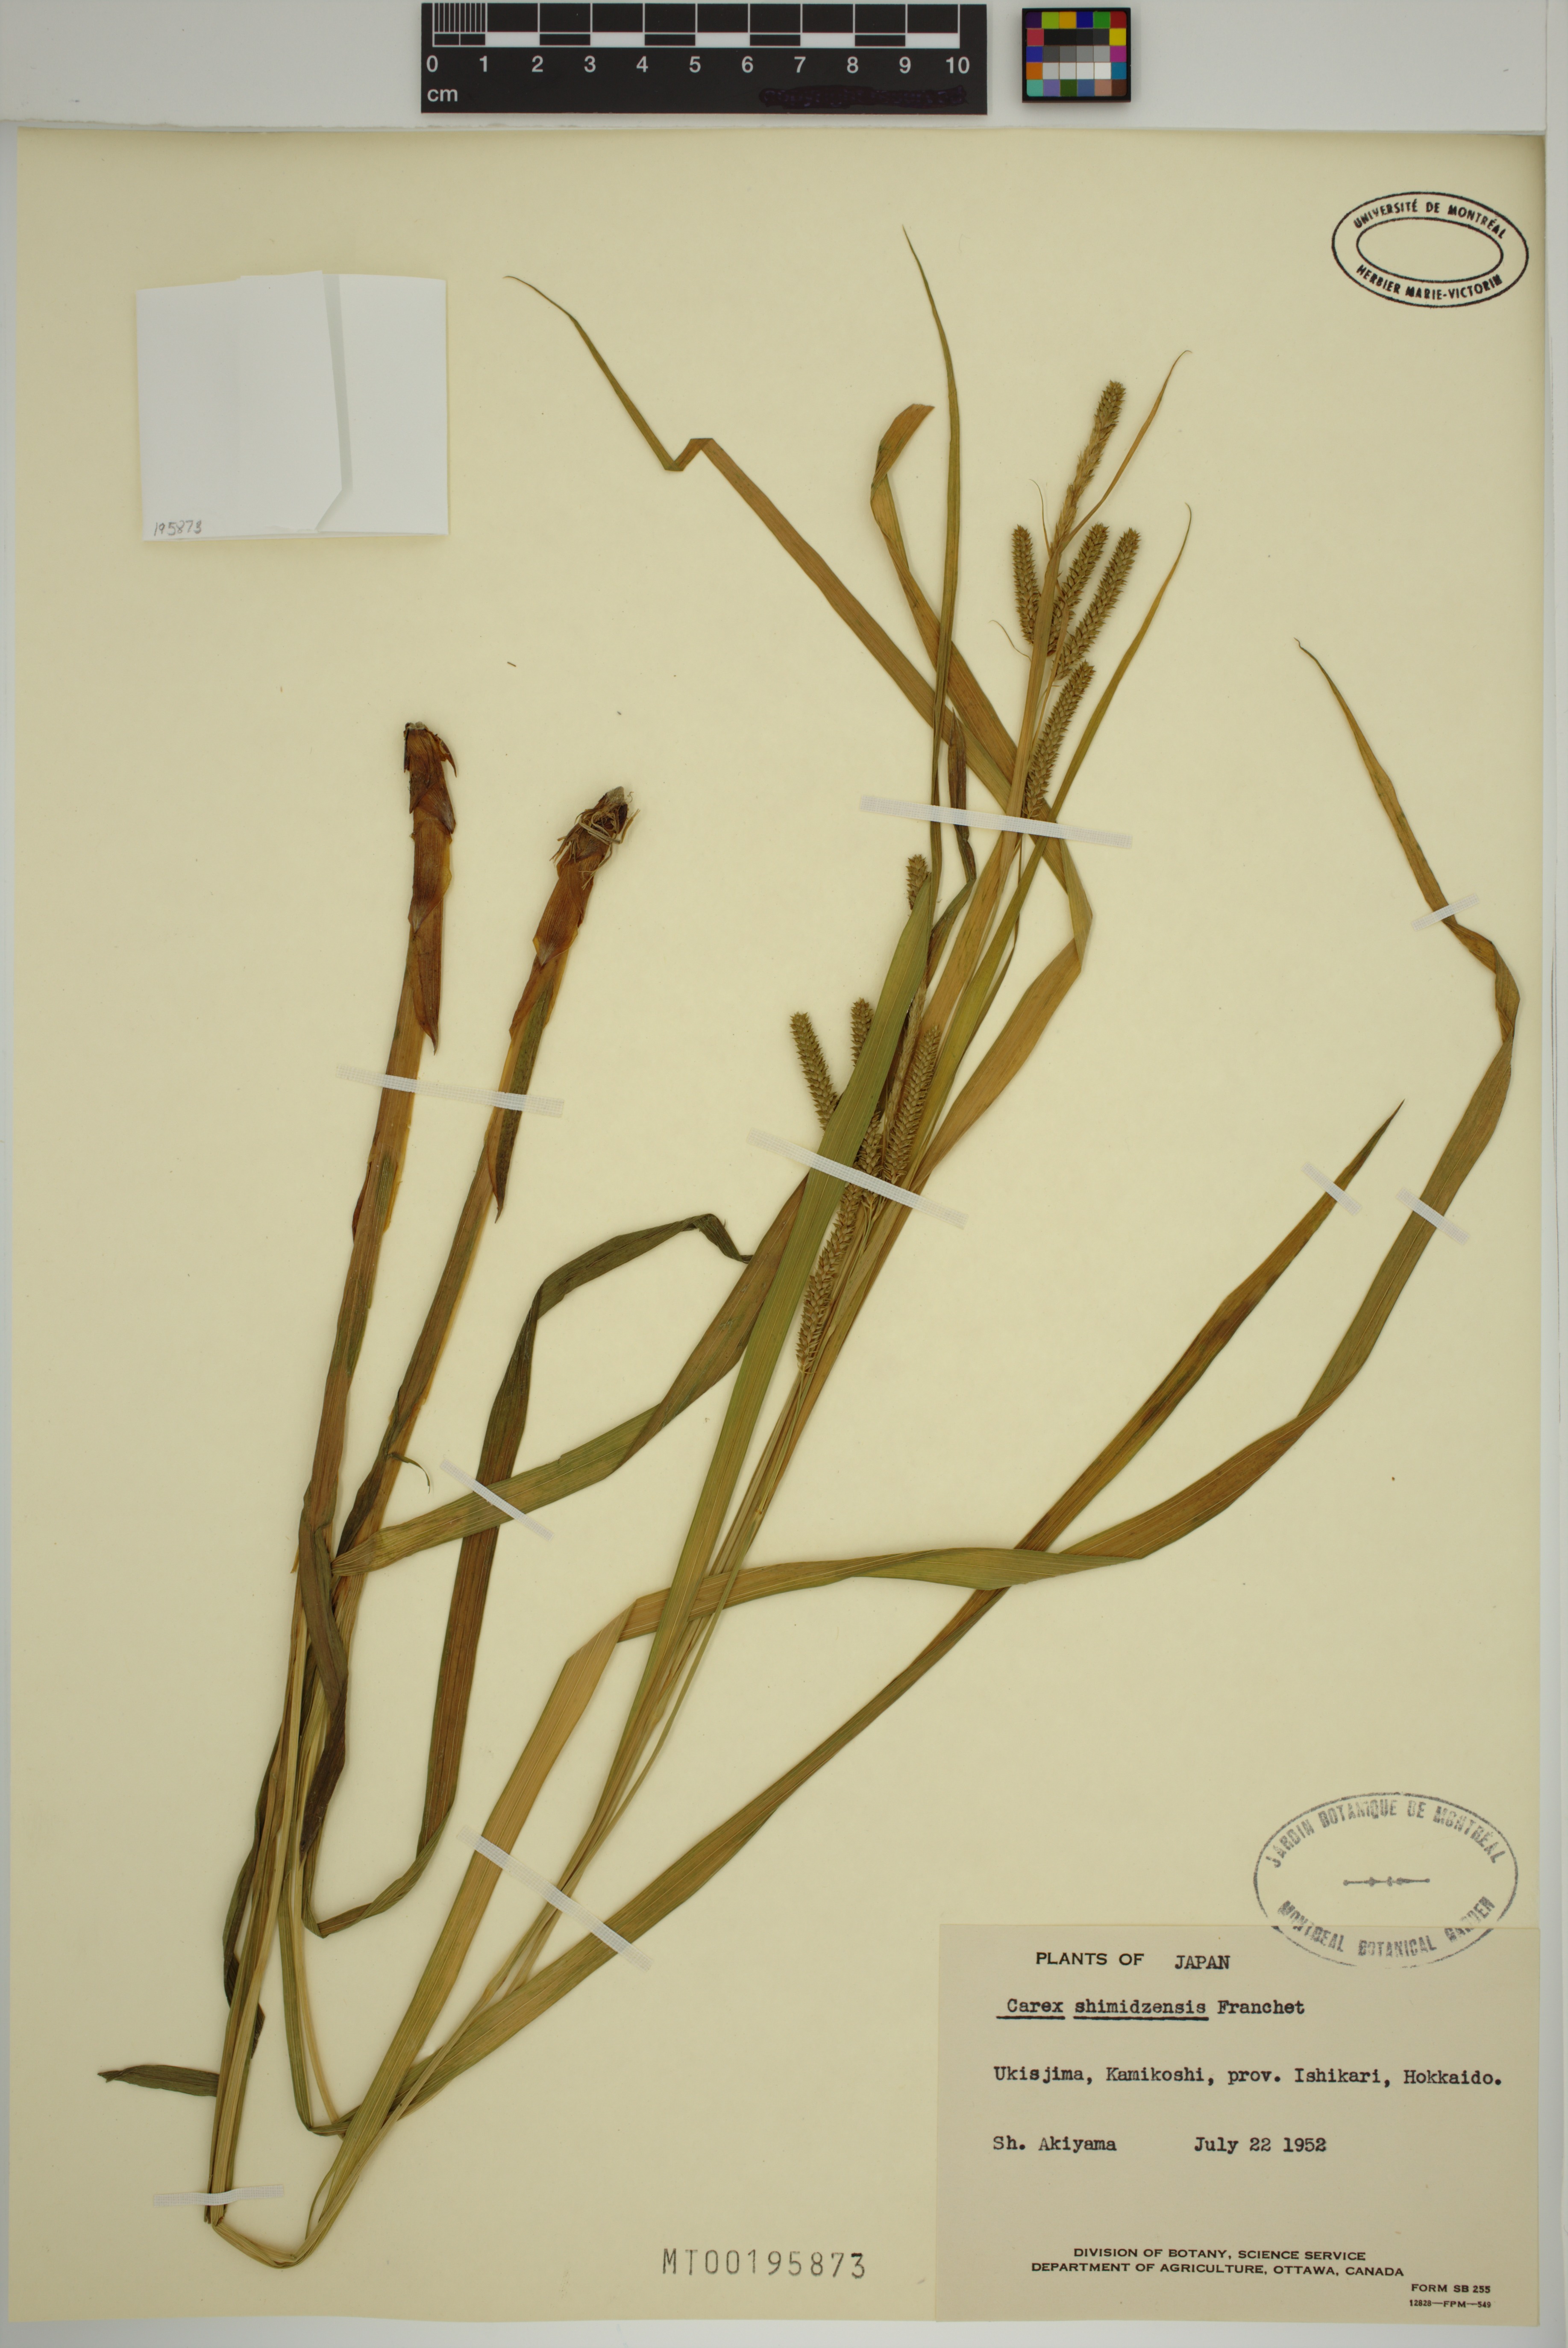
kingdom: Plantae
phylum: Tracheophyta
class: Liliopsida
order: Poales
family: Cyperaceae
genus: Carex
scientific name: Carex shimidzensis
